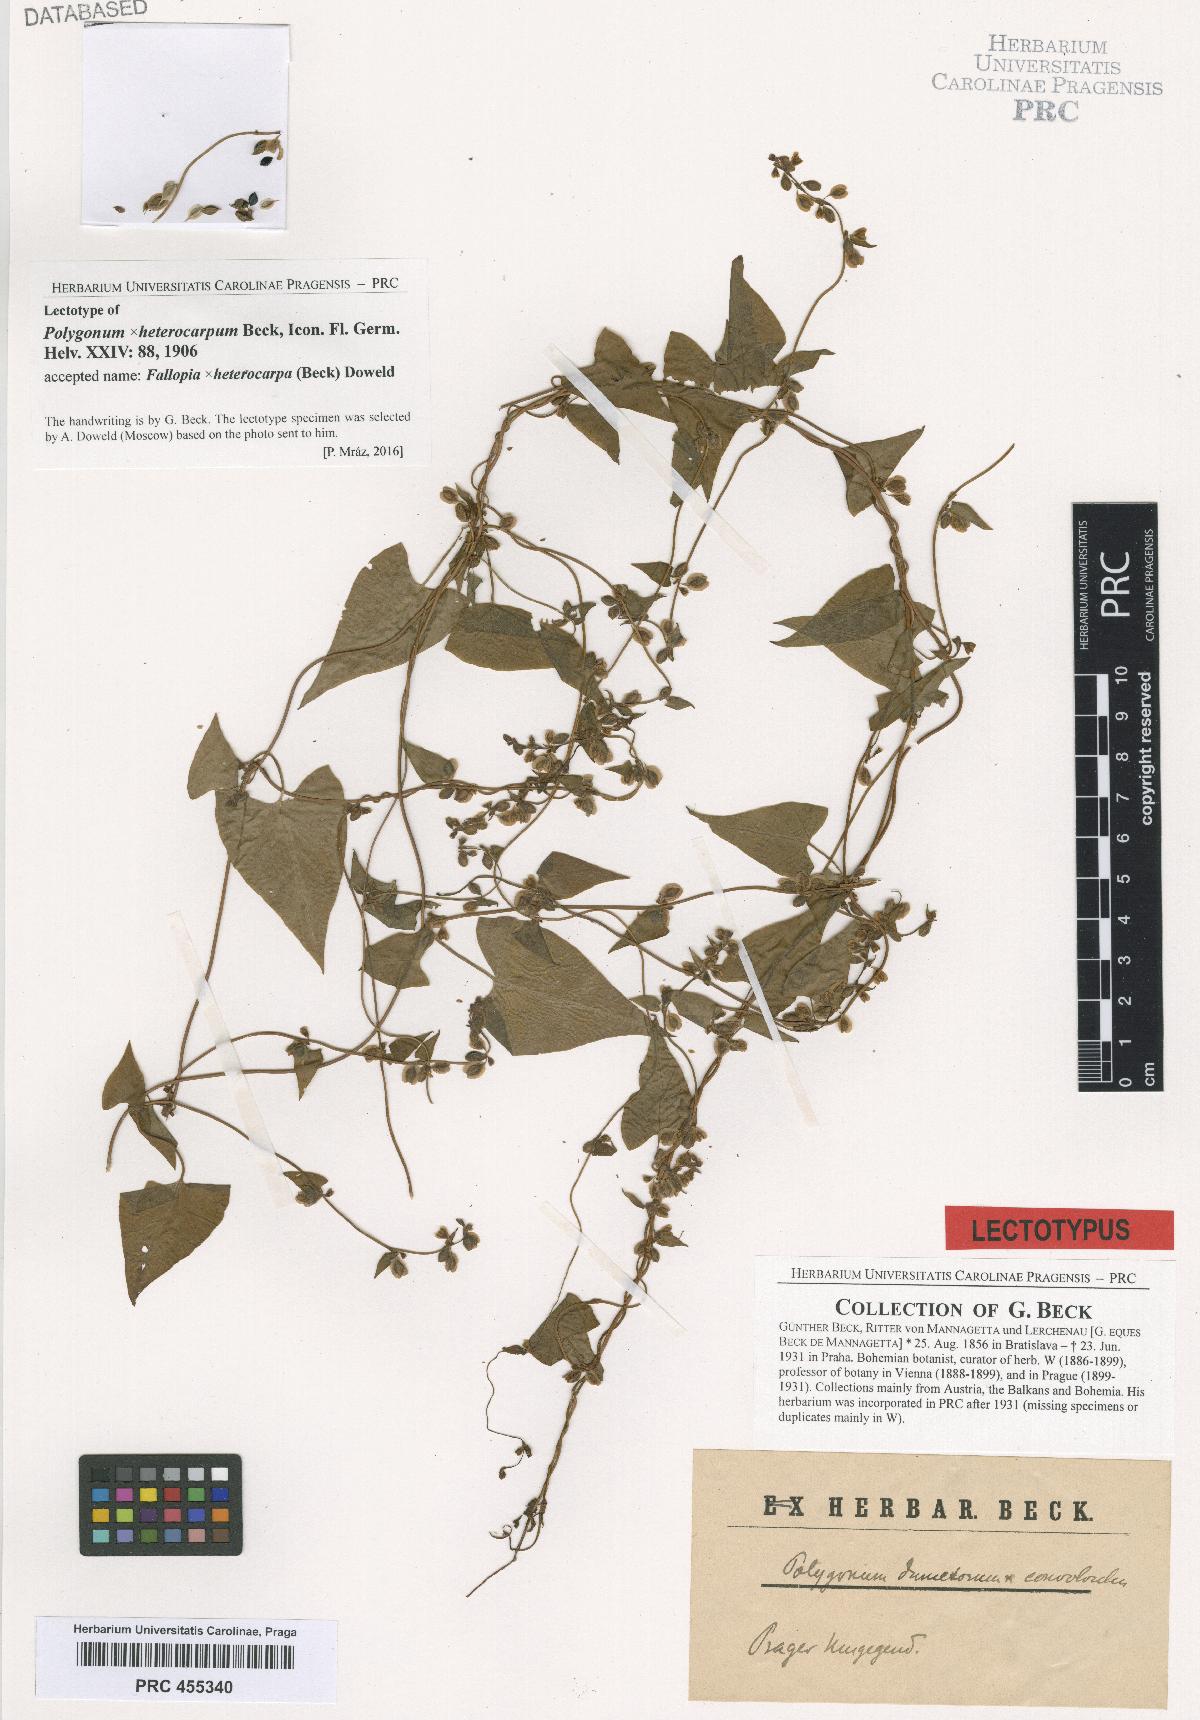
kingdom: Plantae
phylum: Tracheophyta
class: Magnoliopsida
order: Caryophyllales
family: Polygonaceae
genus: Fallopia
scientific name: Fallopia heterocarpa
